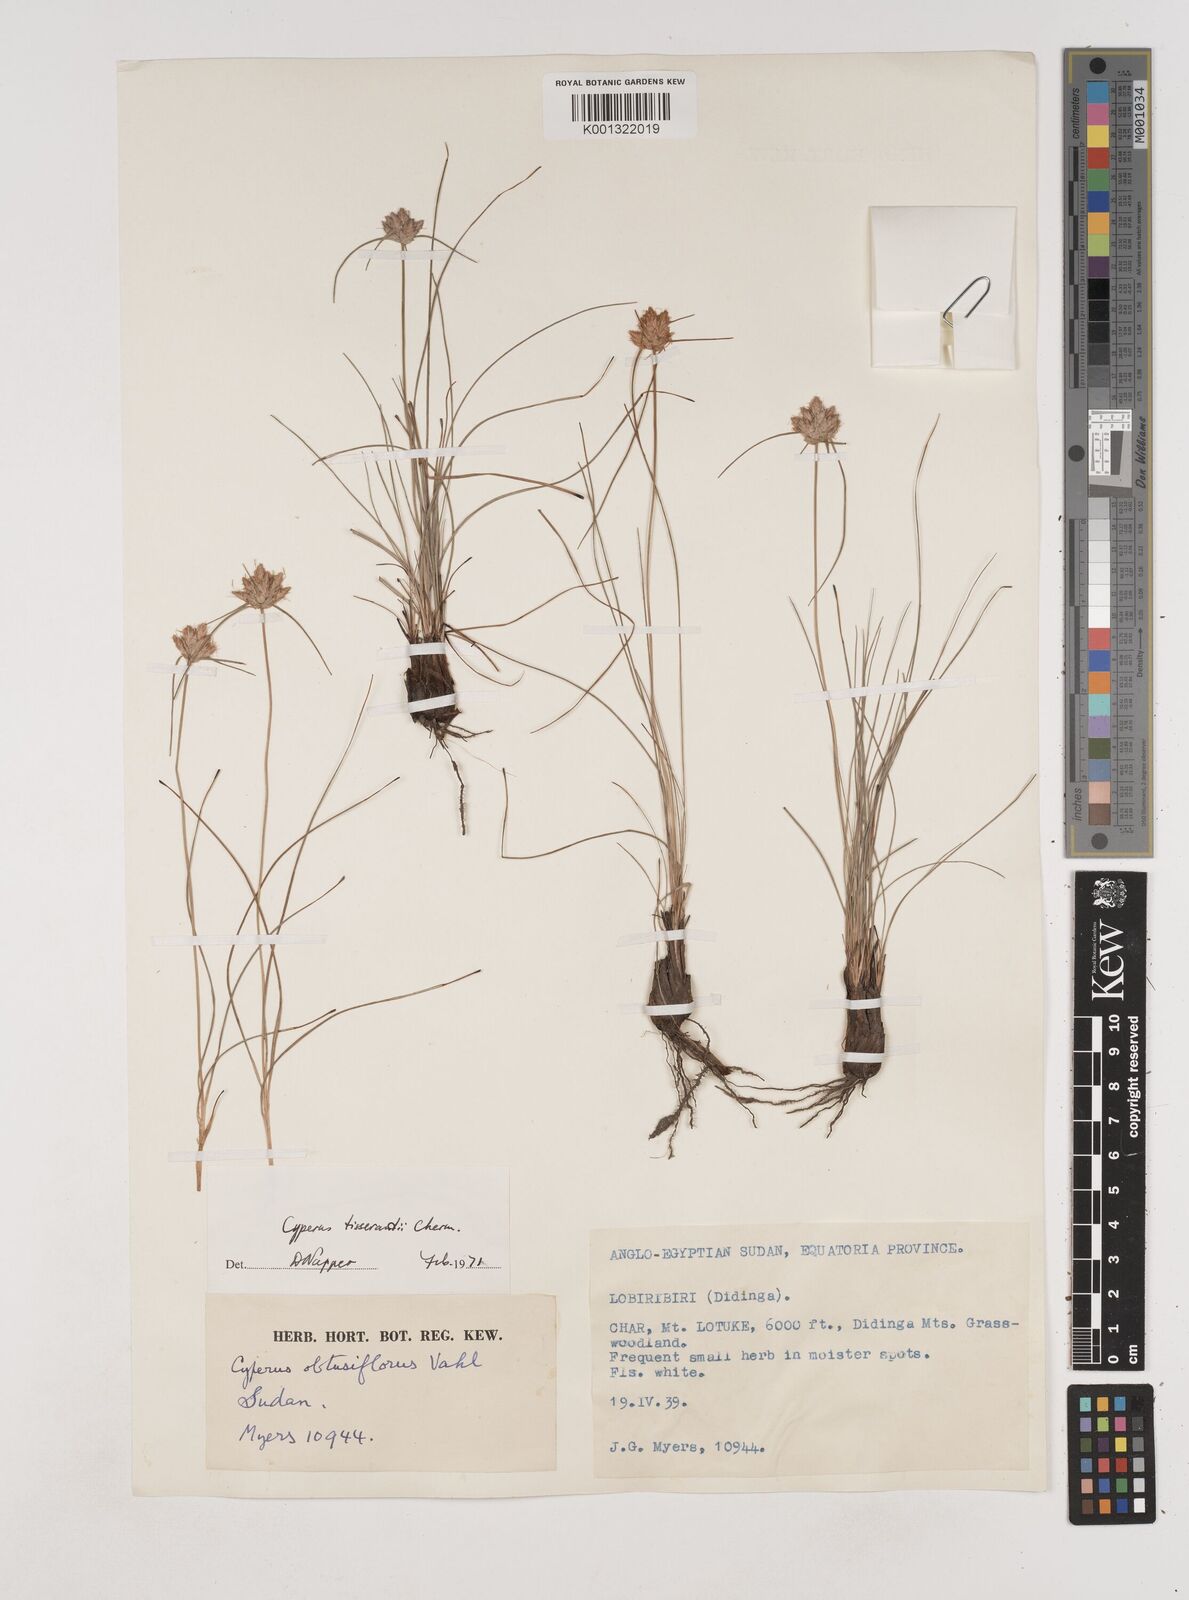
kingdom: Plantae
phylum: Tracheophyta
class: Liliopsida
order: Poales
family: Cyperaceae
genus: Cyperus
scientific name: Cyperus niveus
